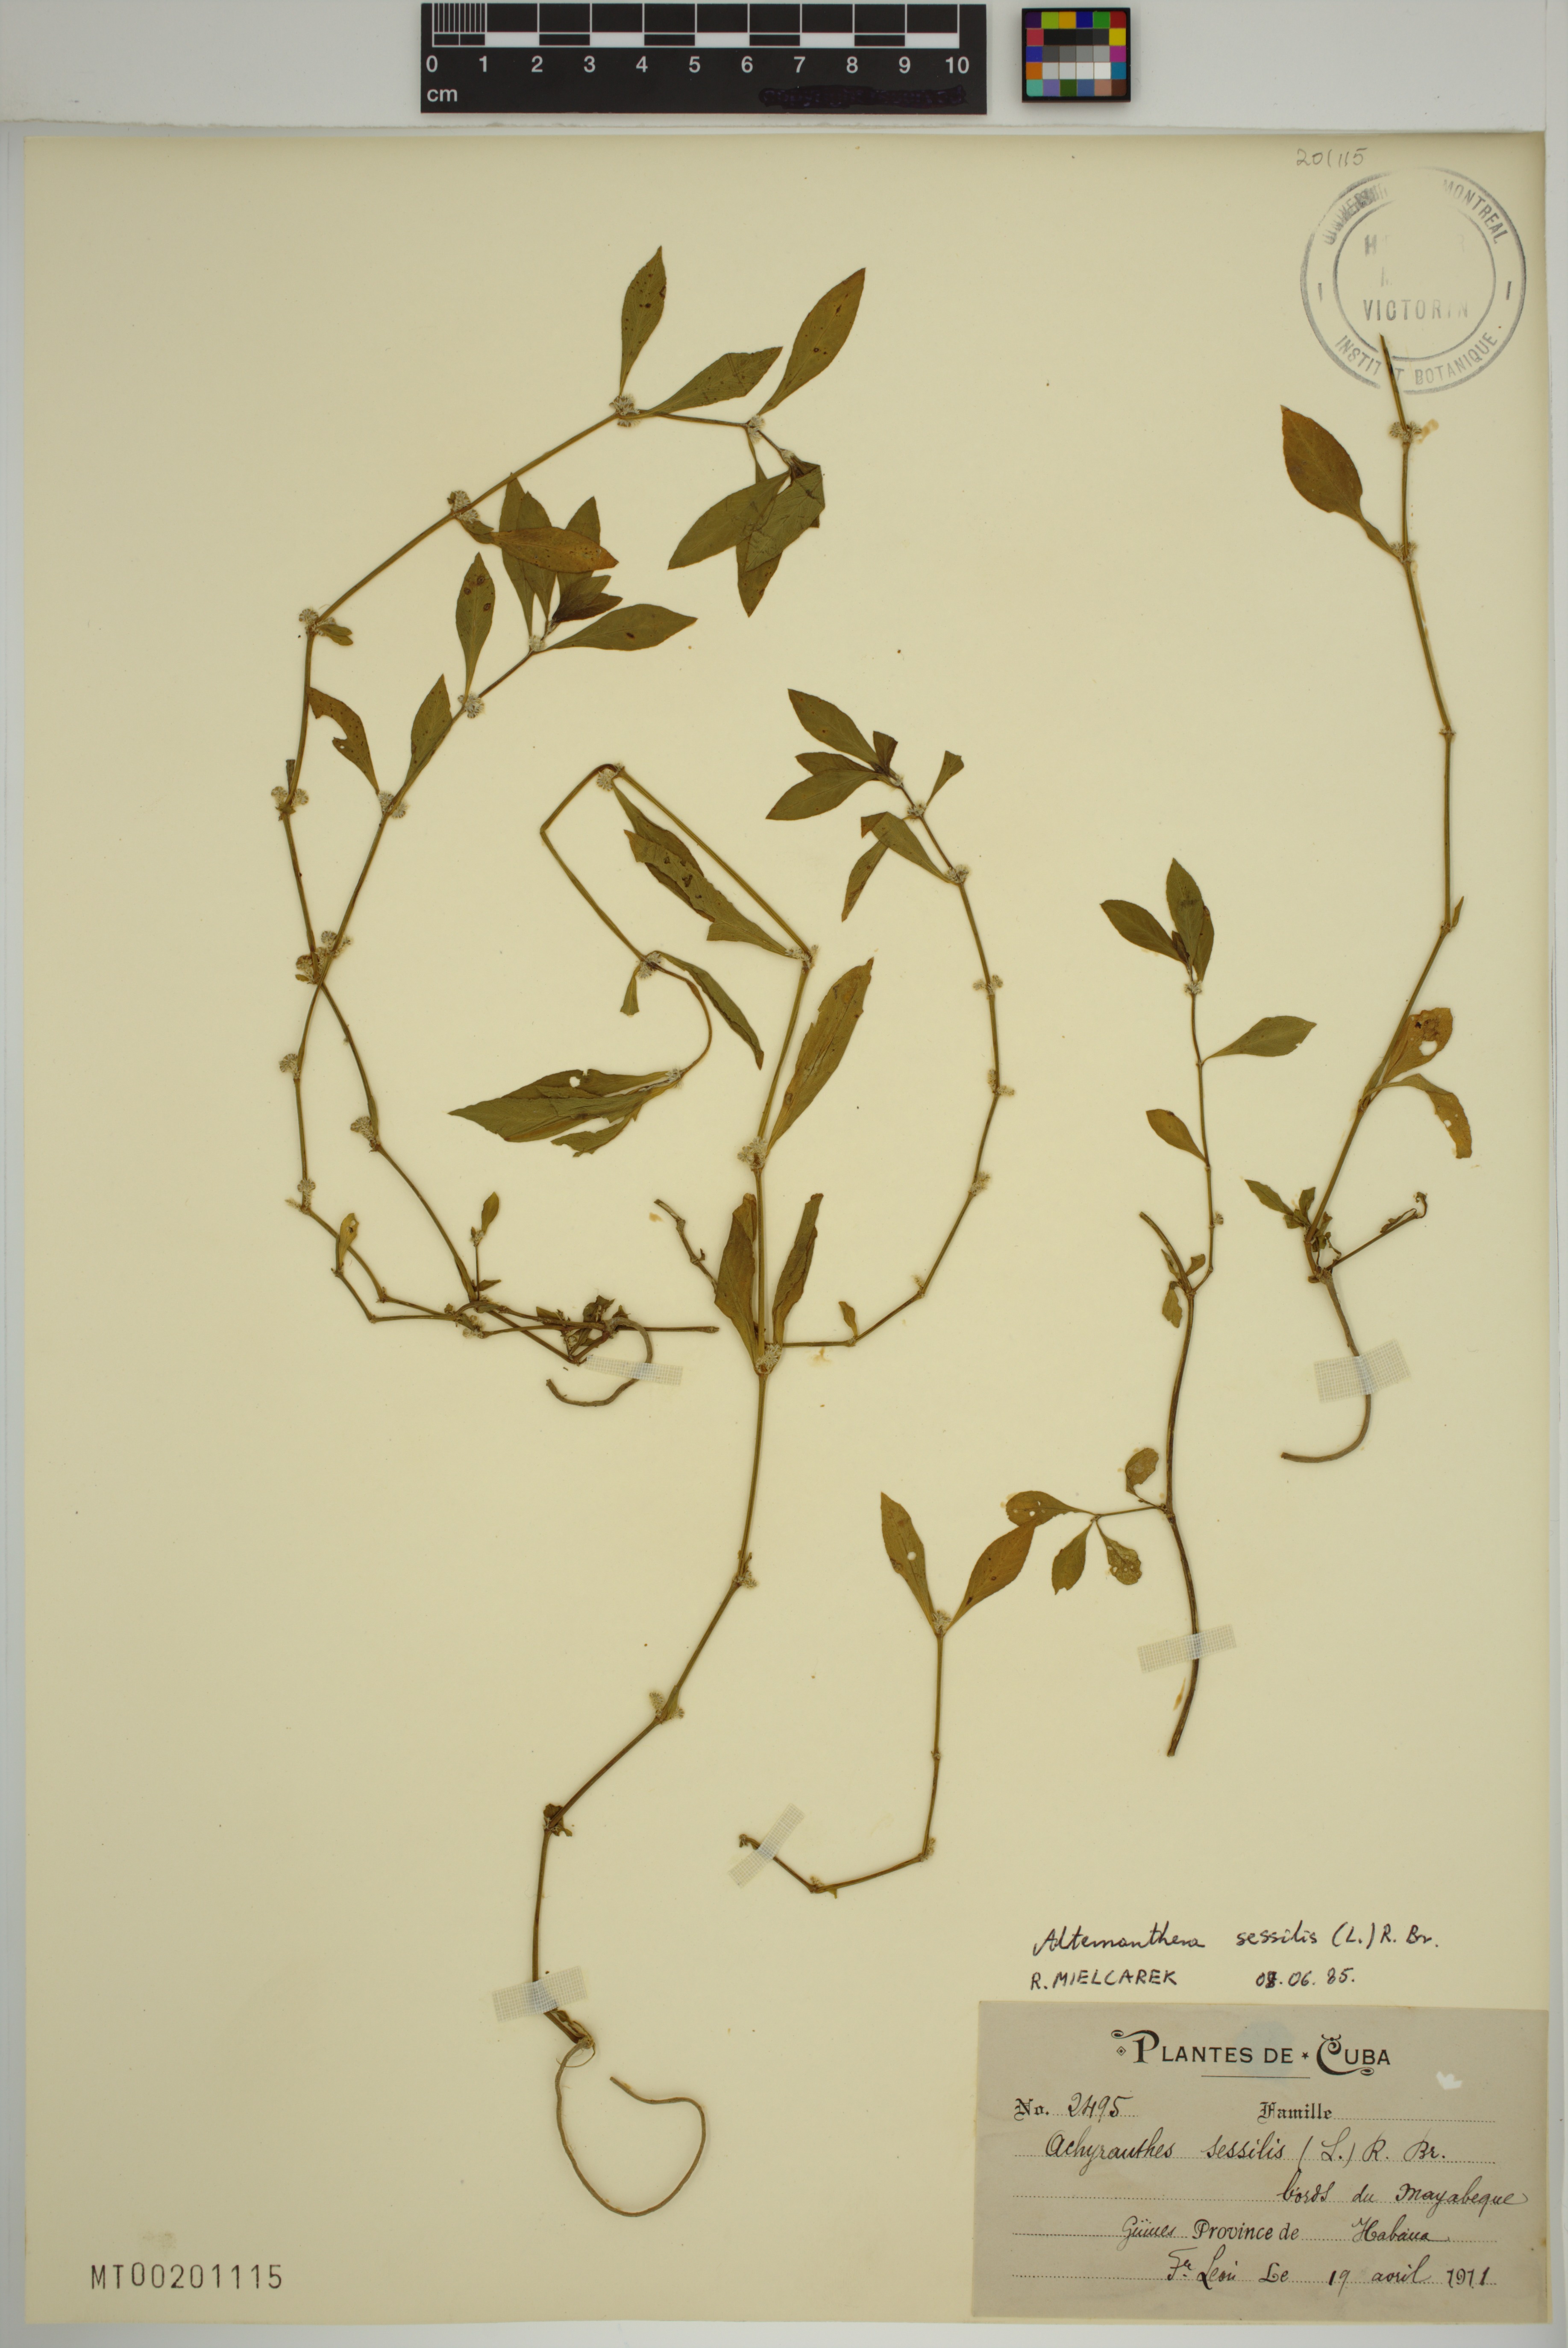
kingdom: Plantae
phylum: Tracheophyta
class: Magnoliopsida
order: Caryophyllales
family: Amaranthaceae
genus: Alternanthera
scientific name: Alternanthera sessilis
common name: Sessile joyweed
